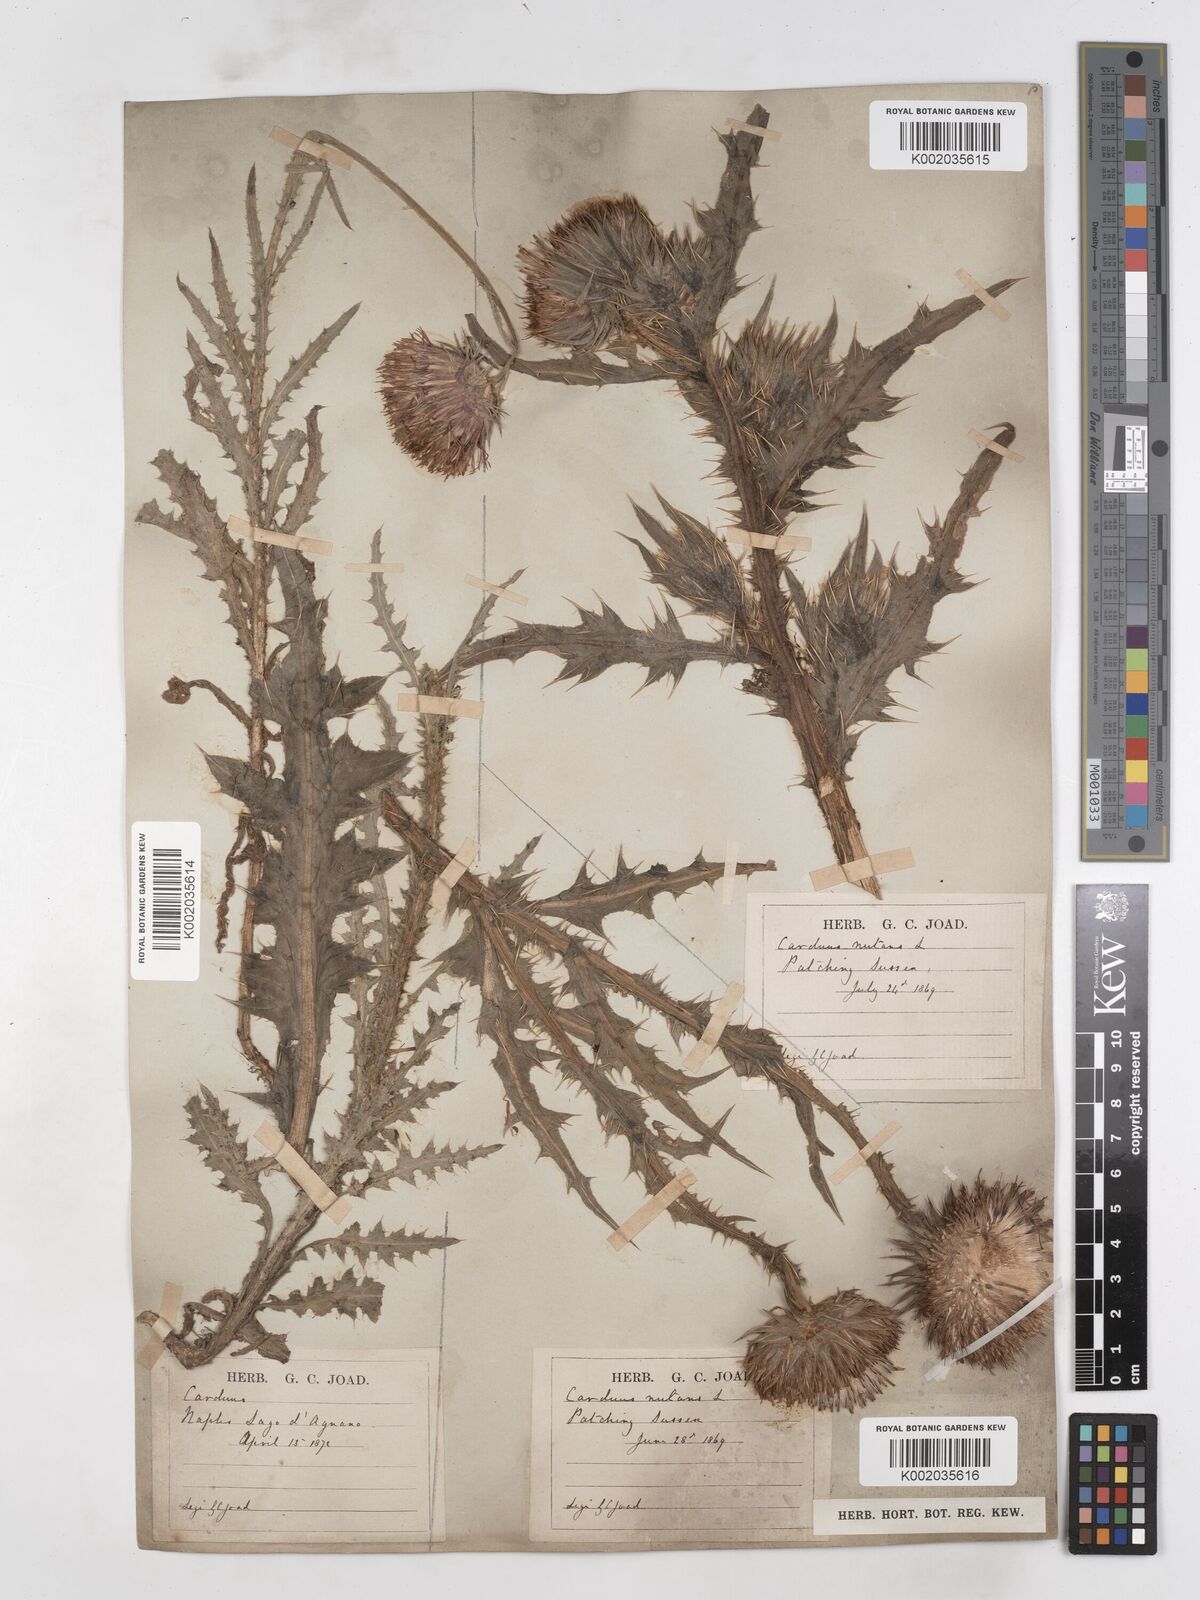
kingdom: Plantae
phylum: Tracheophyta
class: Magnoliopsida
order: Asterales
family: Asteraceae
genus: Carduus
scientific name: Carduus nutans
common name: Musk thistle
